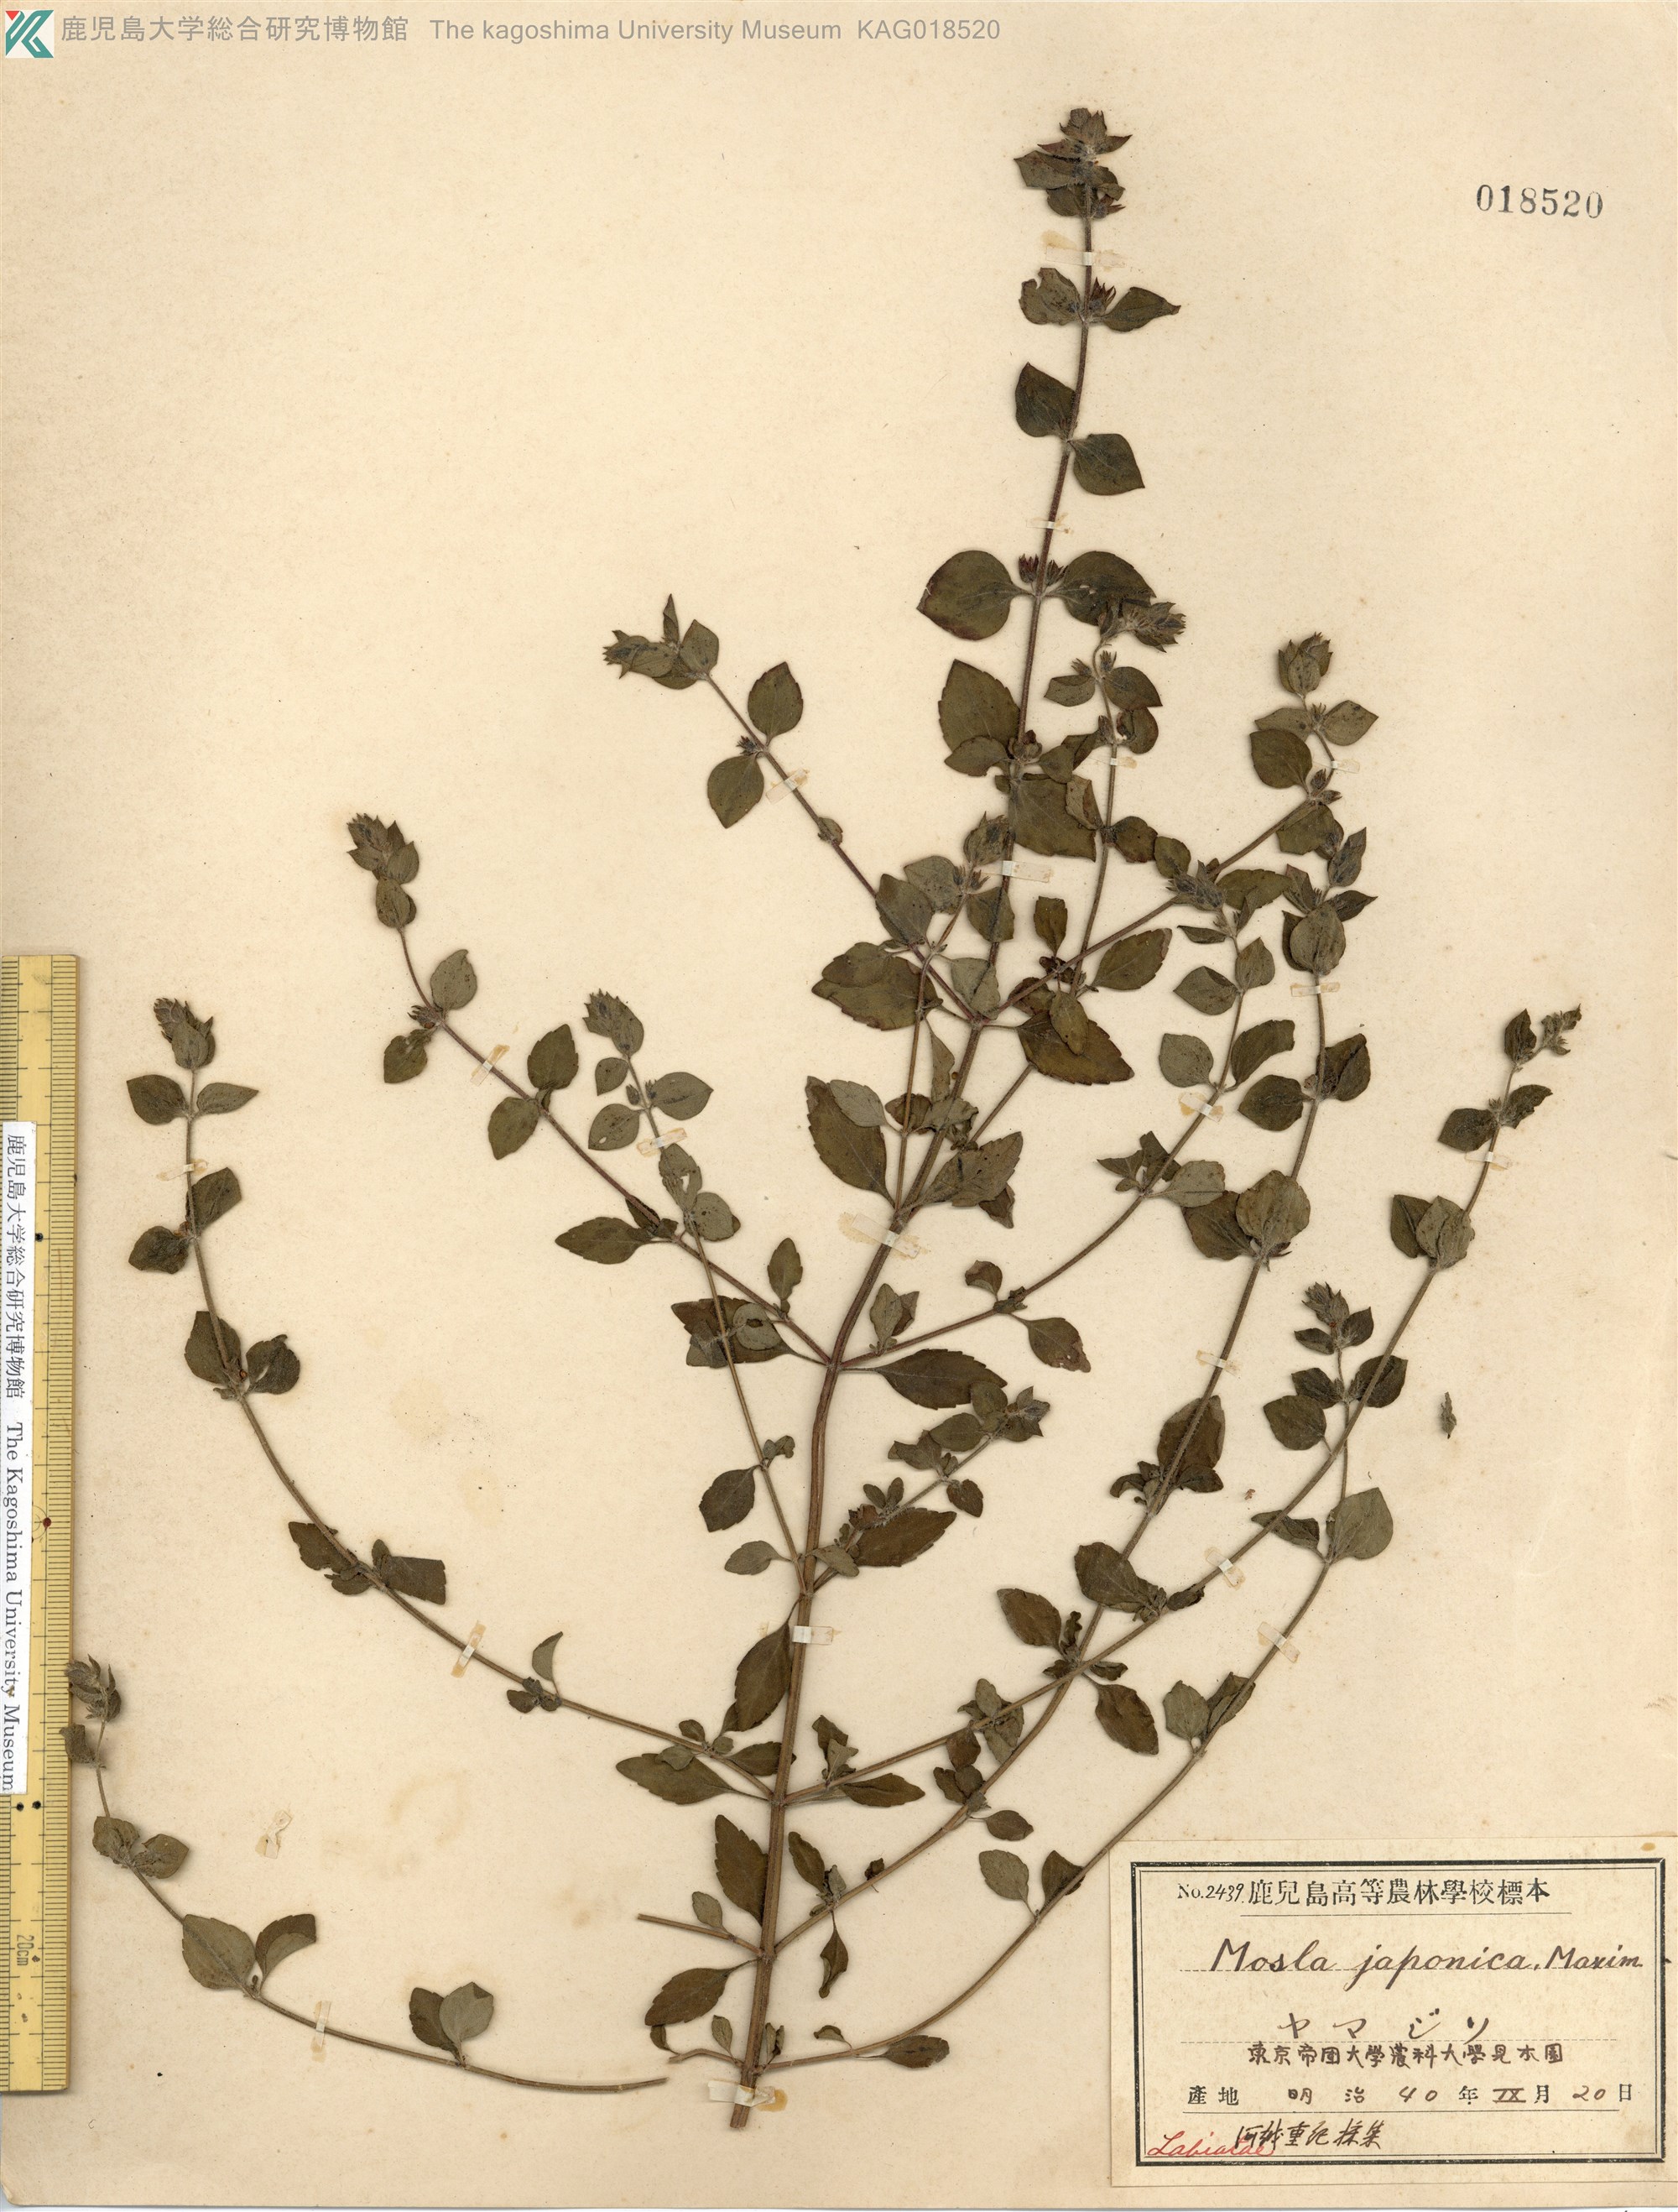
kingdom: Plantae
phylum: Tracheophyta
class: Magnoliopsida
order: Lamiales
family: Lamiaceae
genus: Mosla
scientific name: Mosla japonica
